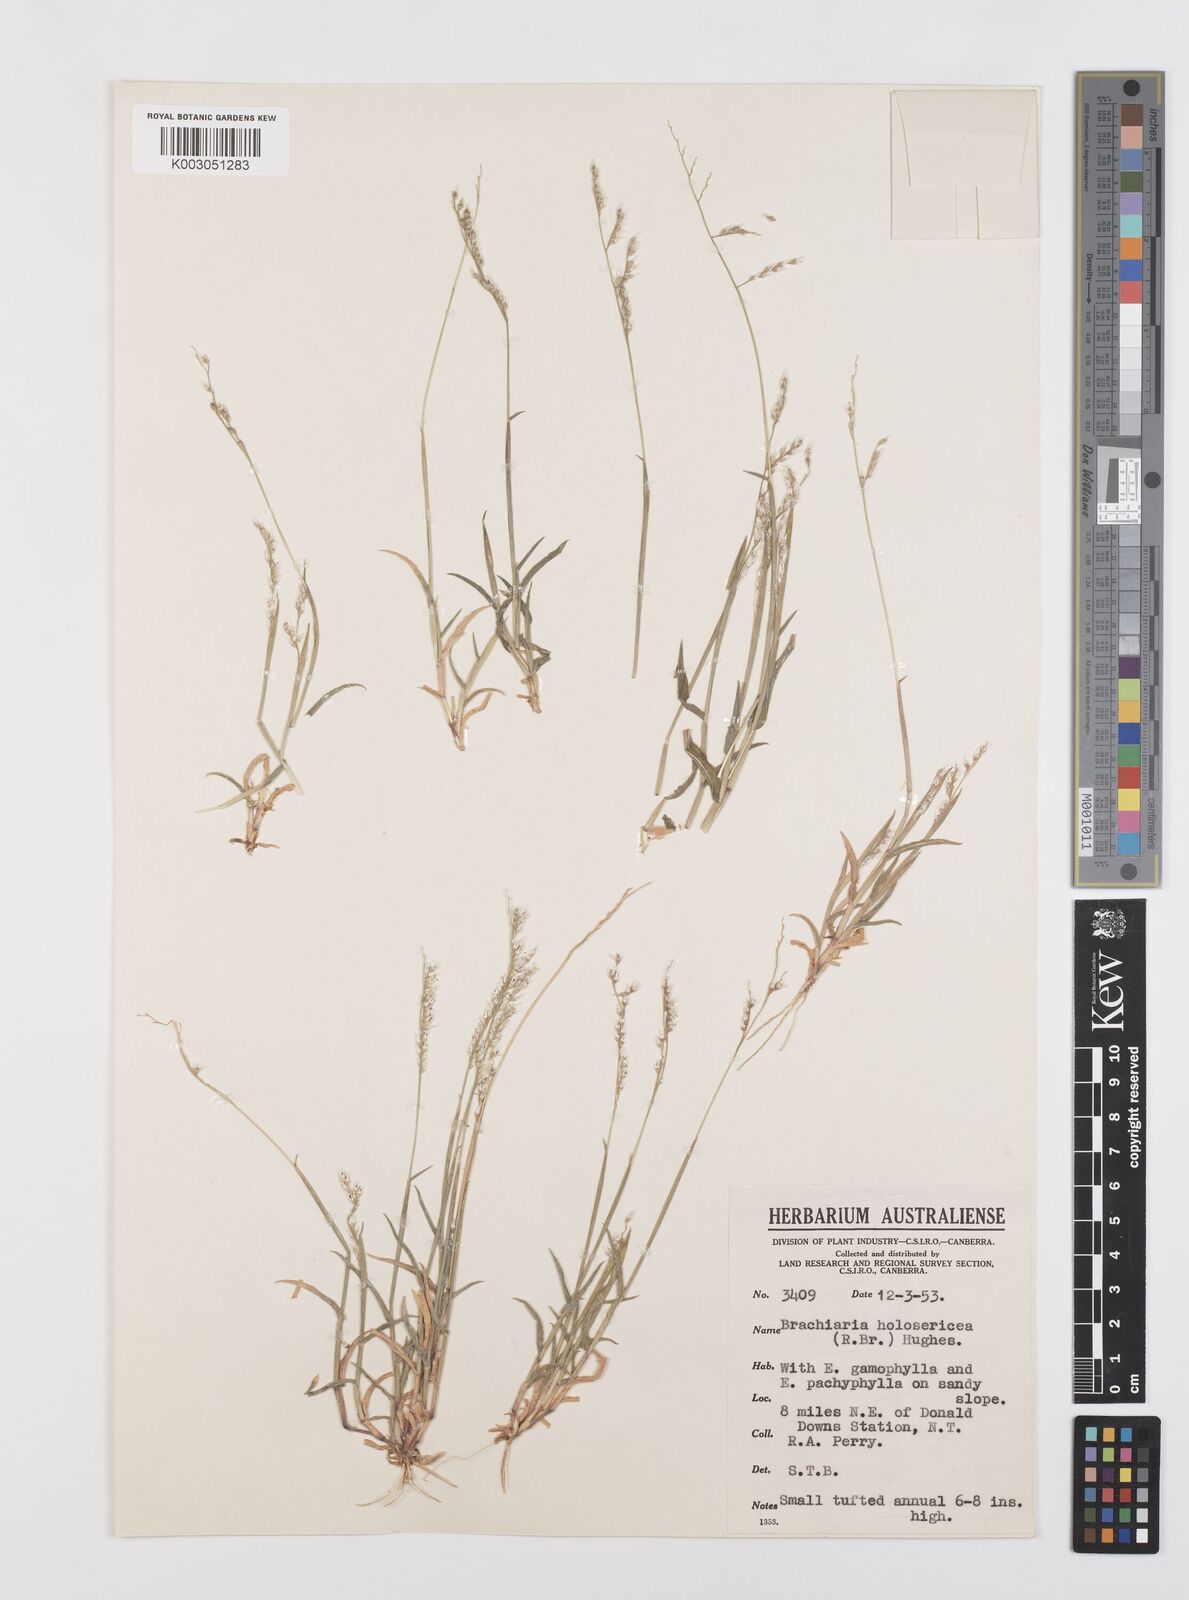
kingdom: Plantae
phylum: Tracheophyta
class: Liliopsida
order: Poales
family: Poaceae
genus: Urochloa
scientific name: Urochloa holosericea
